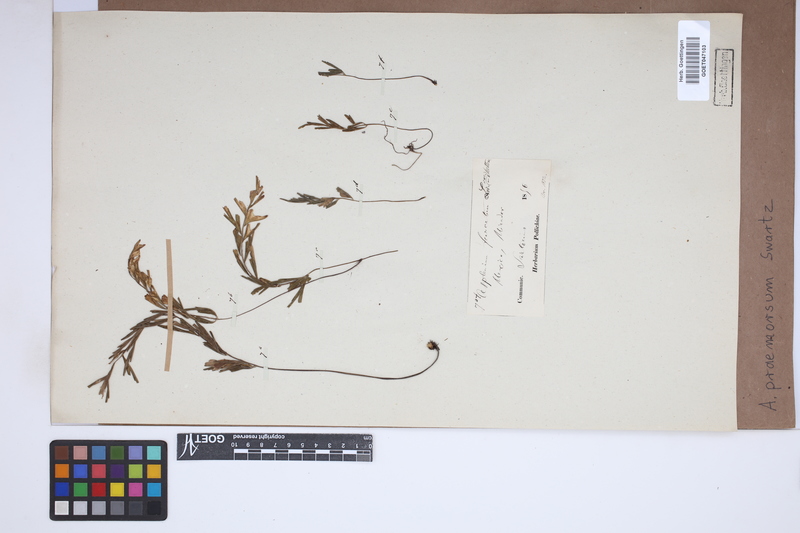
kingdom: Plantae
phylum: Tracheophyta
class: Polypodiopsida
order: Polypodiales
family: Aspleniaceae
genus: Asplenium
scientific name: Asplenium praemorsum
